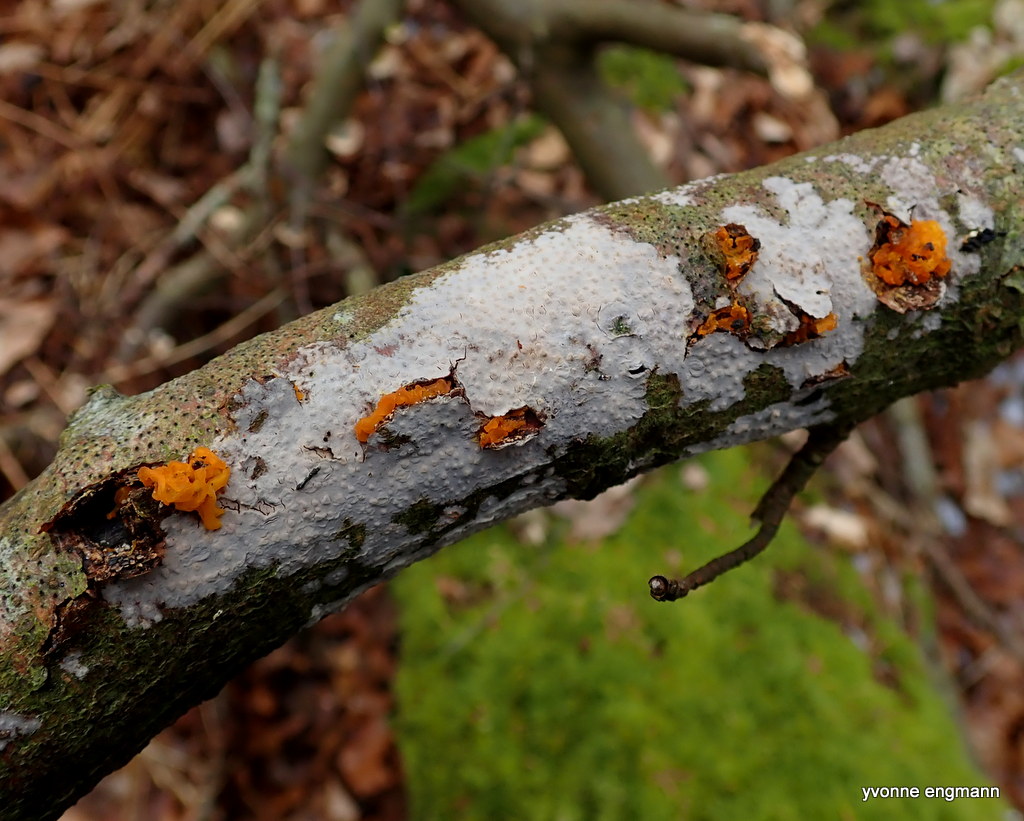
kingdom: Fungi
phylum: Basidiomycota
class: Tremellomycetes
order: Tremellales
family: Tremellaceae
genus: Tremella
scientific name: Tremella mesenterica
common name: gul bævresvamp
